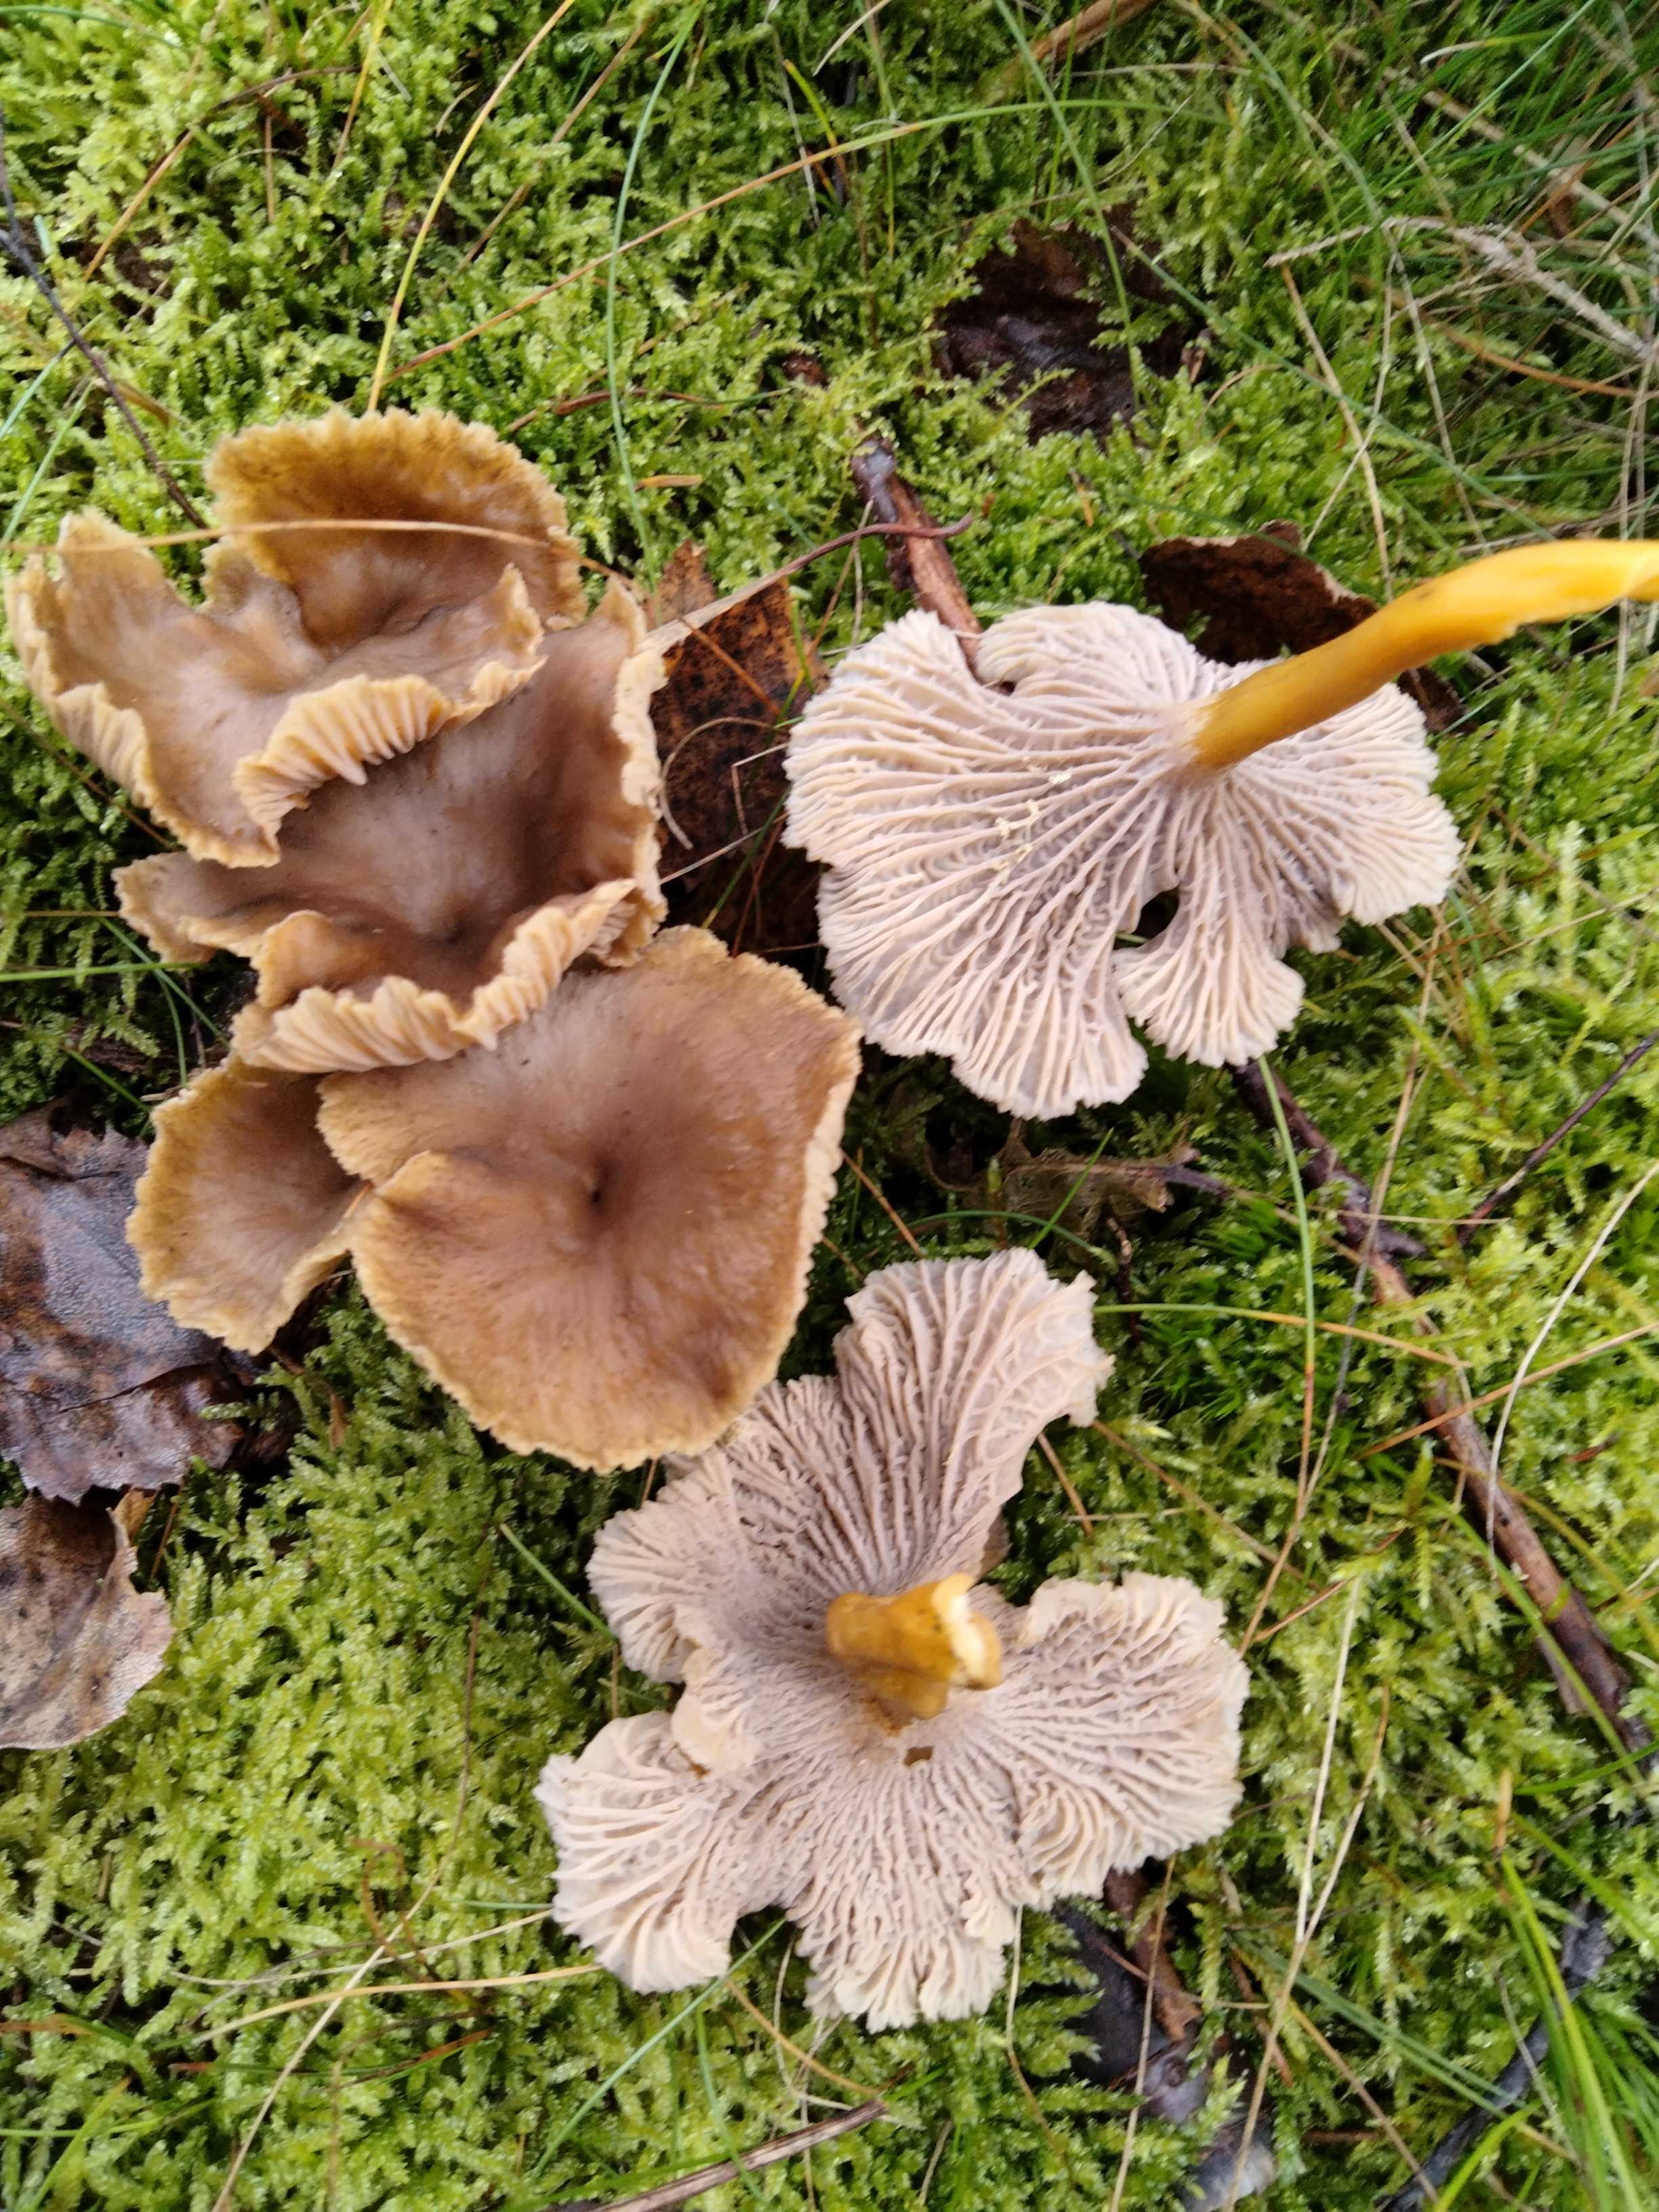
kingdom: Fungi
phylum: Basidiomycota
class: Agaricomycetes
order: Cantharellales
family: Hydnaceae
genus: Craterellus
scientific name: Craterellus tubaeformis
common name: tragt-kantarel
